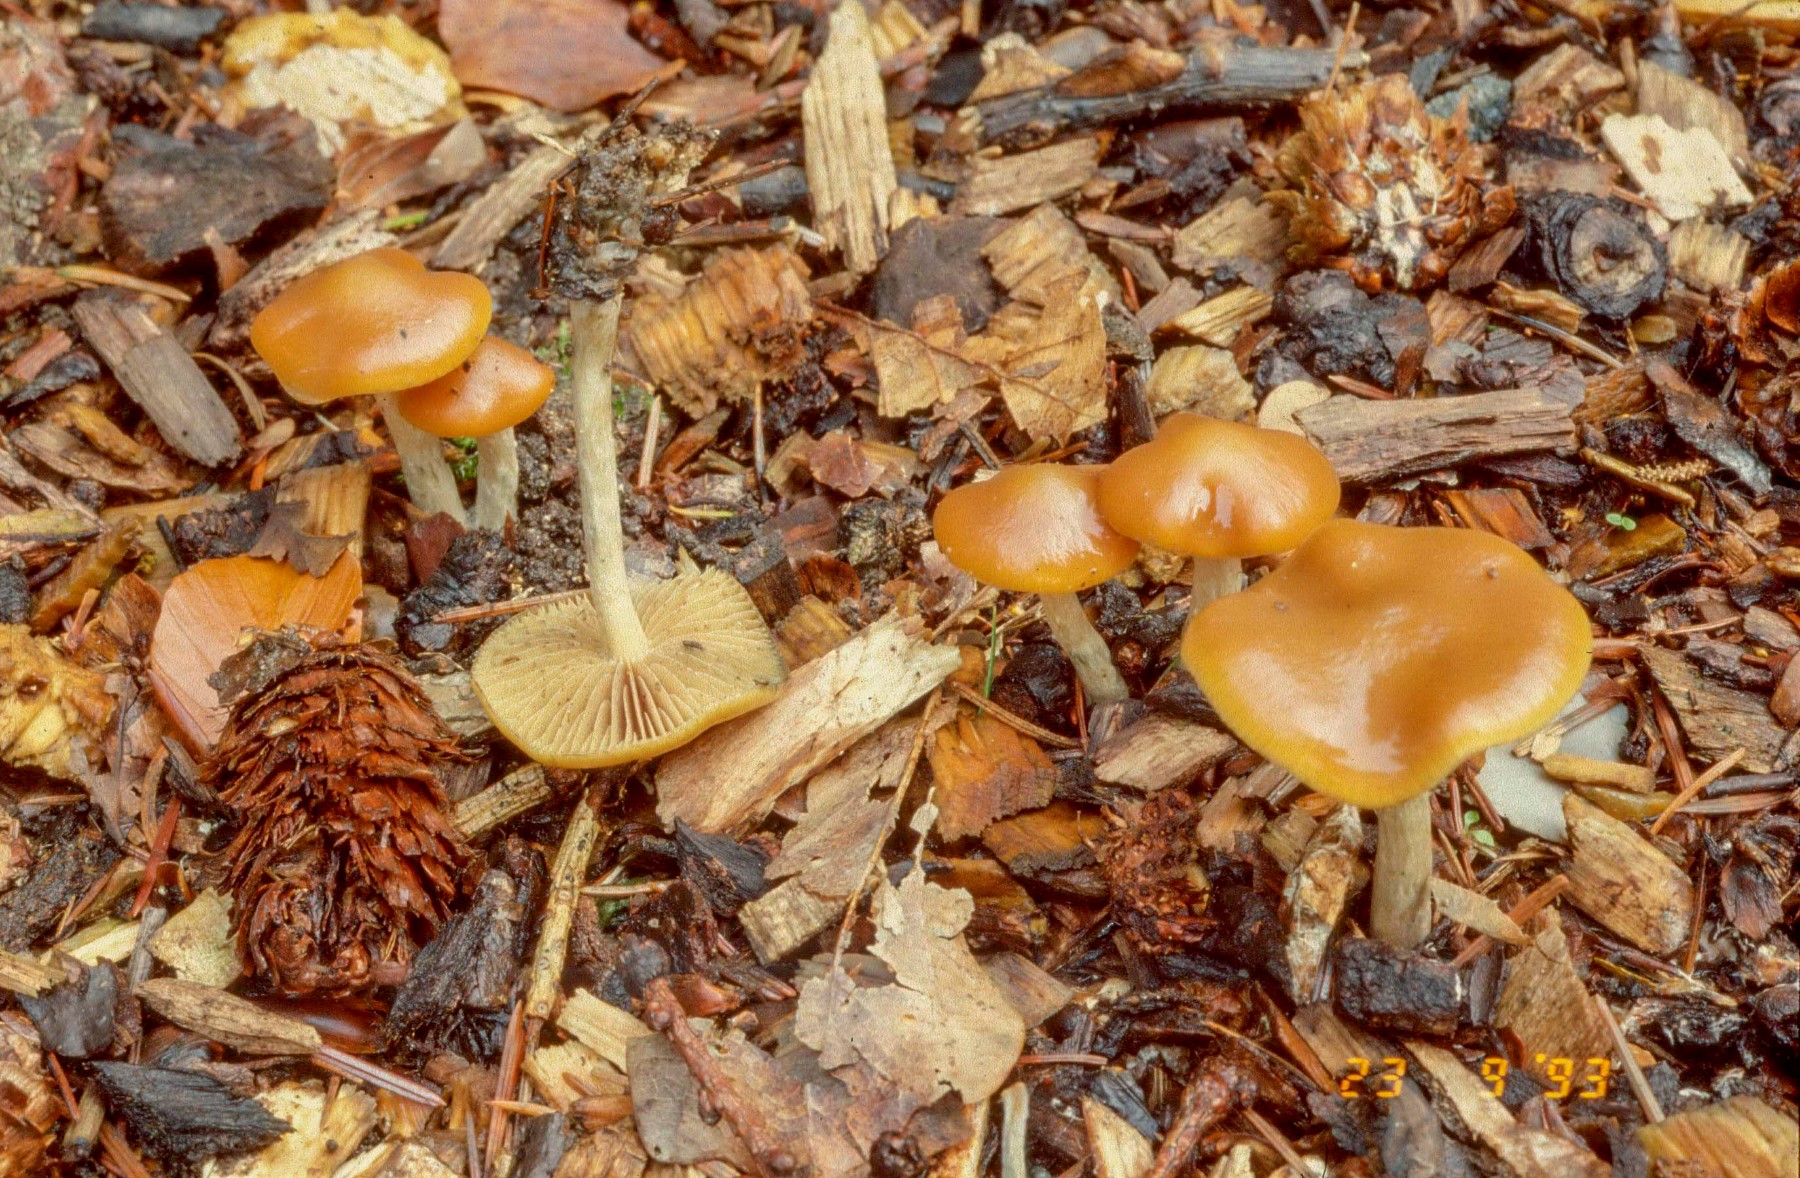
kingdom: Fungi
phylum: Basidiomycota
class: Agaricomycetes
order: Agaricales
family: Hymenogastraceae
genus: Psilocybe
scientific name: Psilocybe cyanescens
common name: blånende nøgenhat
